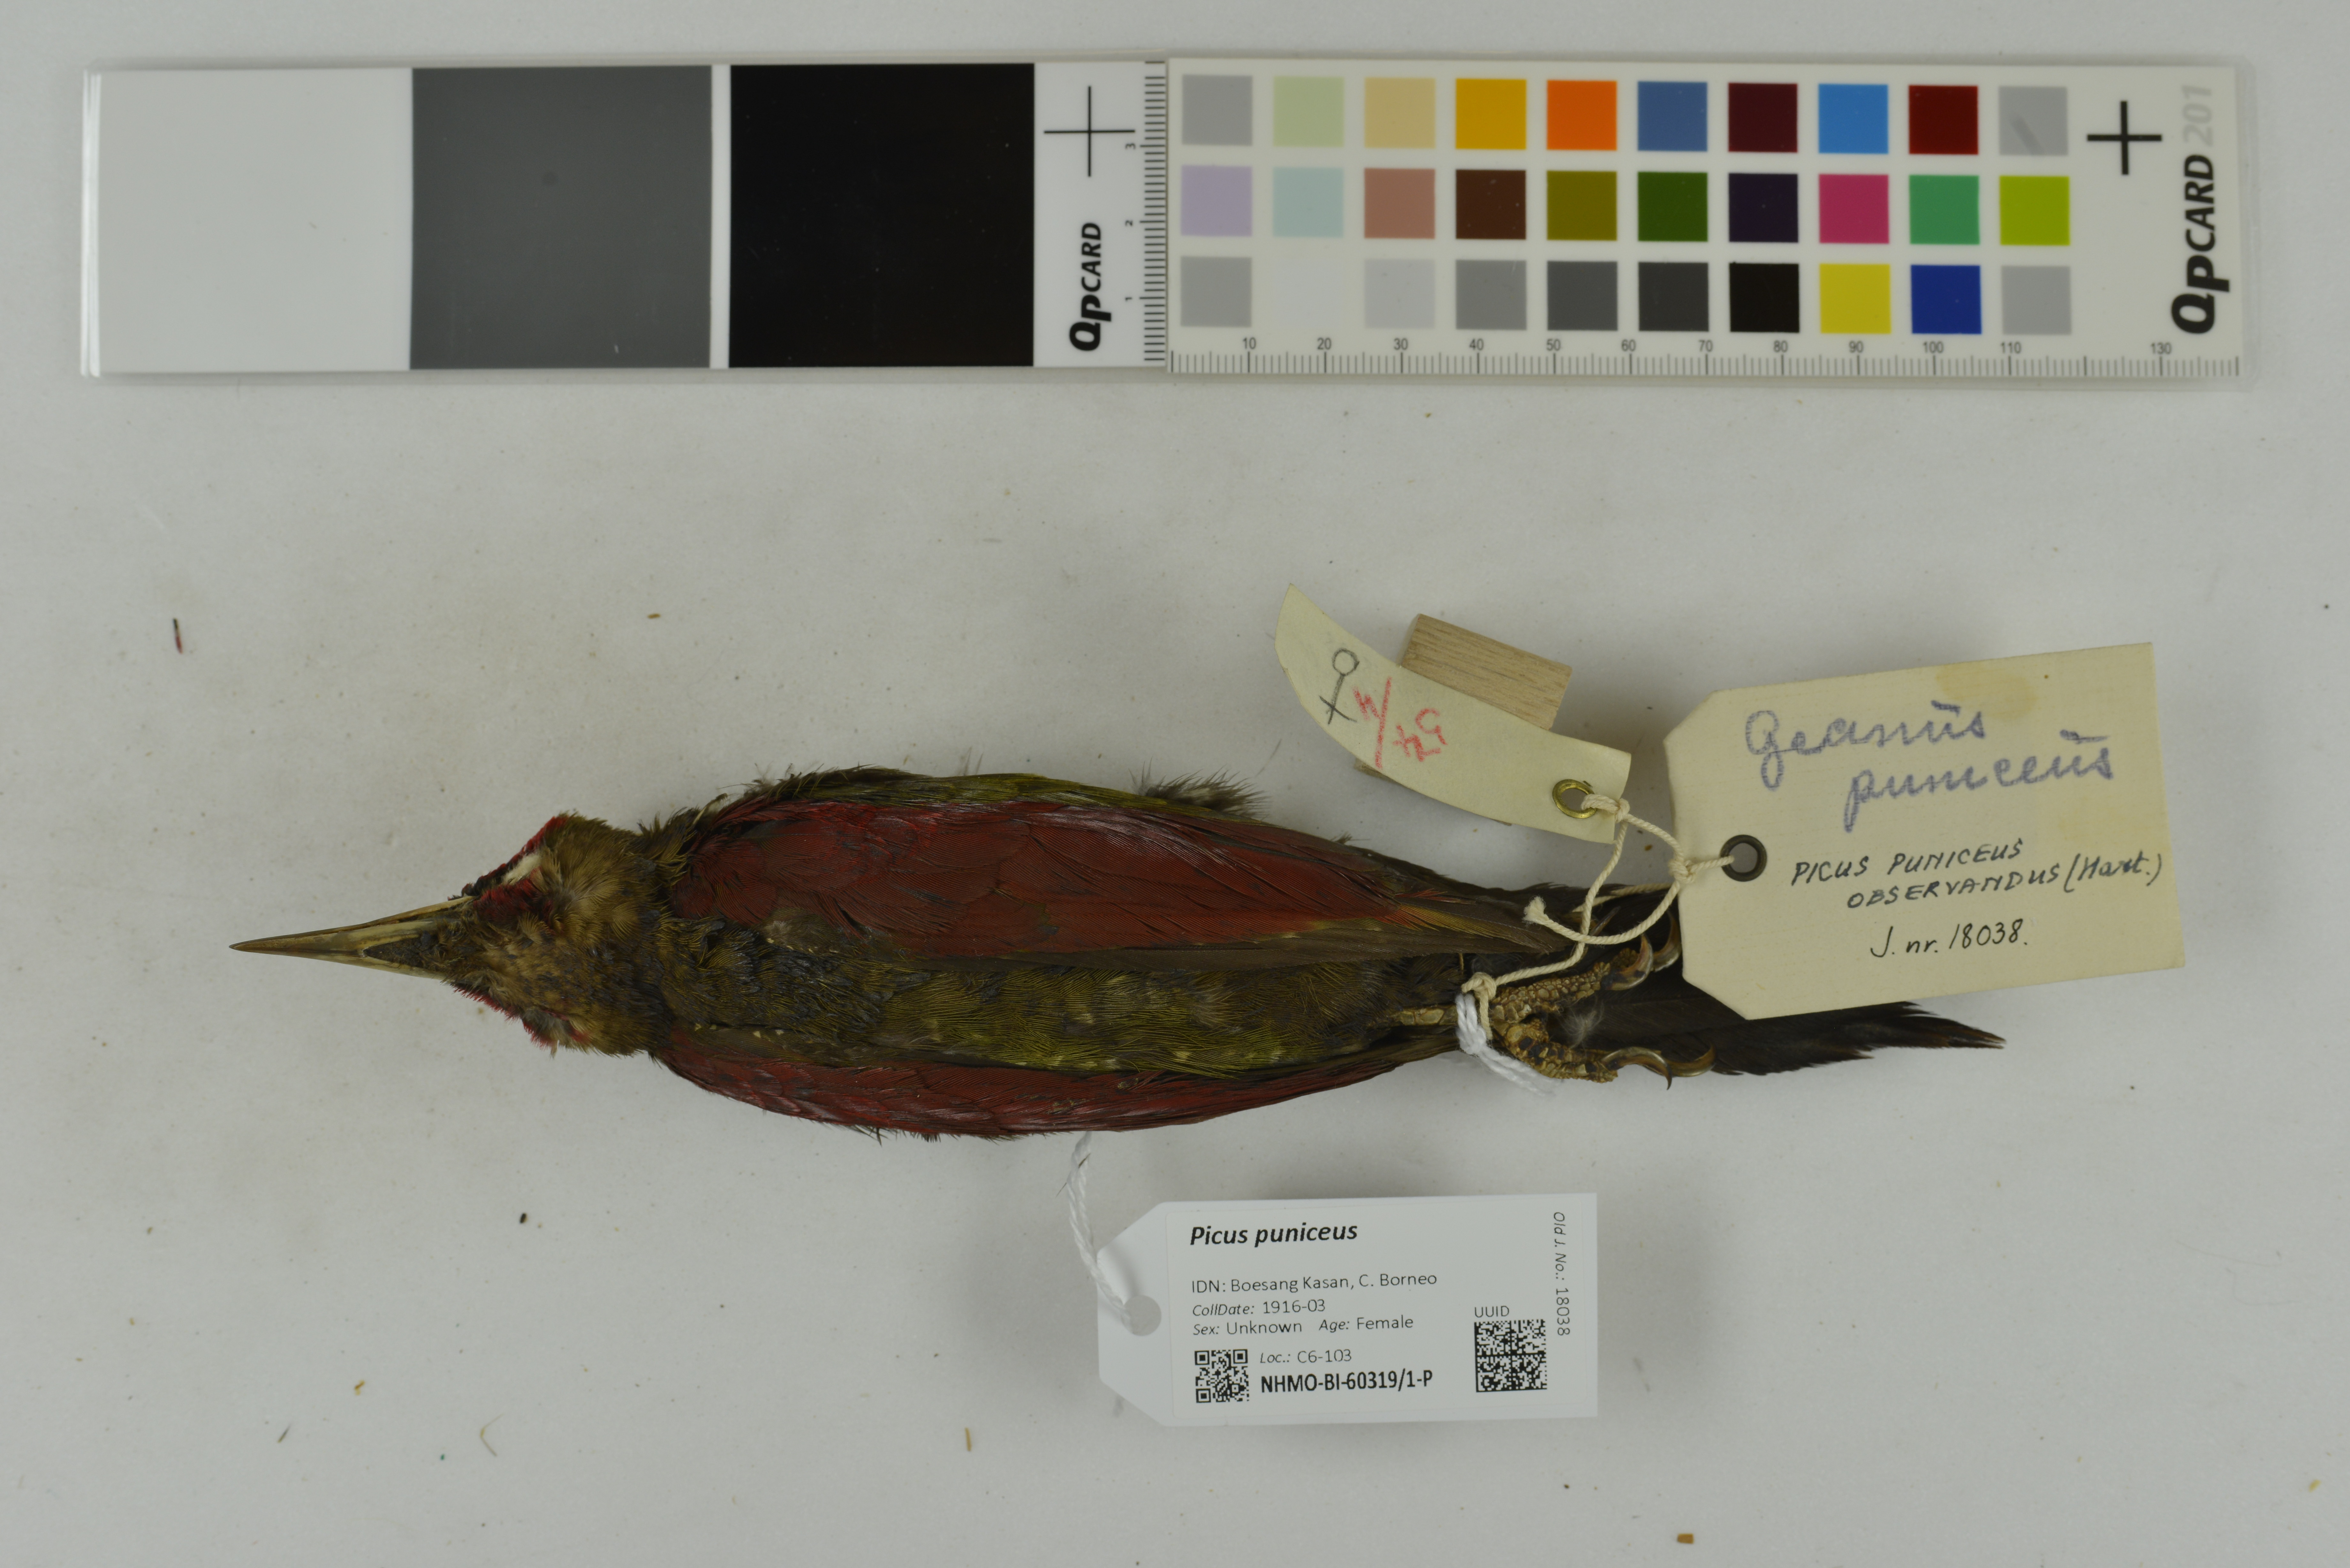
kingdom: Animalia
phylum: Chordata
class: Aves
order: Piciformes
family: Picidae
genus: Picus
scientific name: Picus puniceus
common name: Crimson-winged woodpecker
